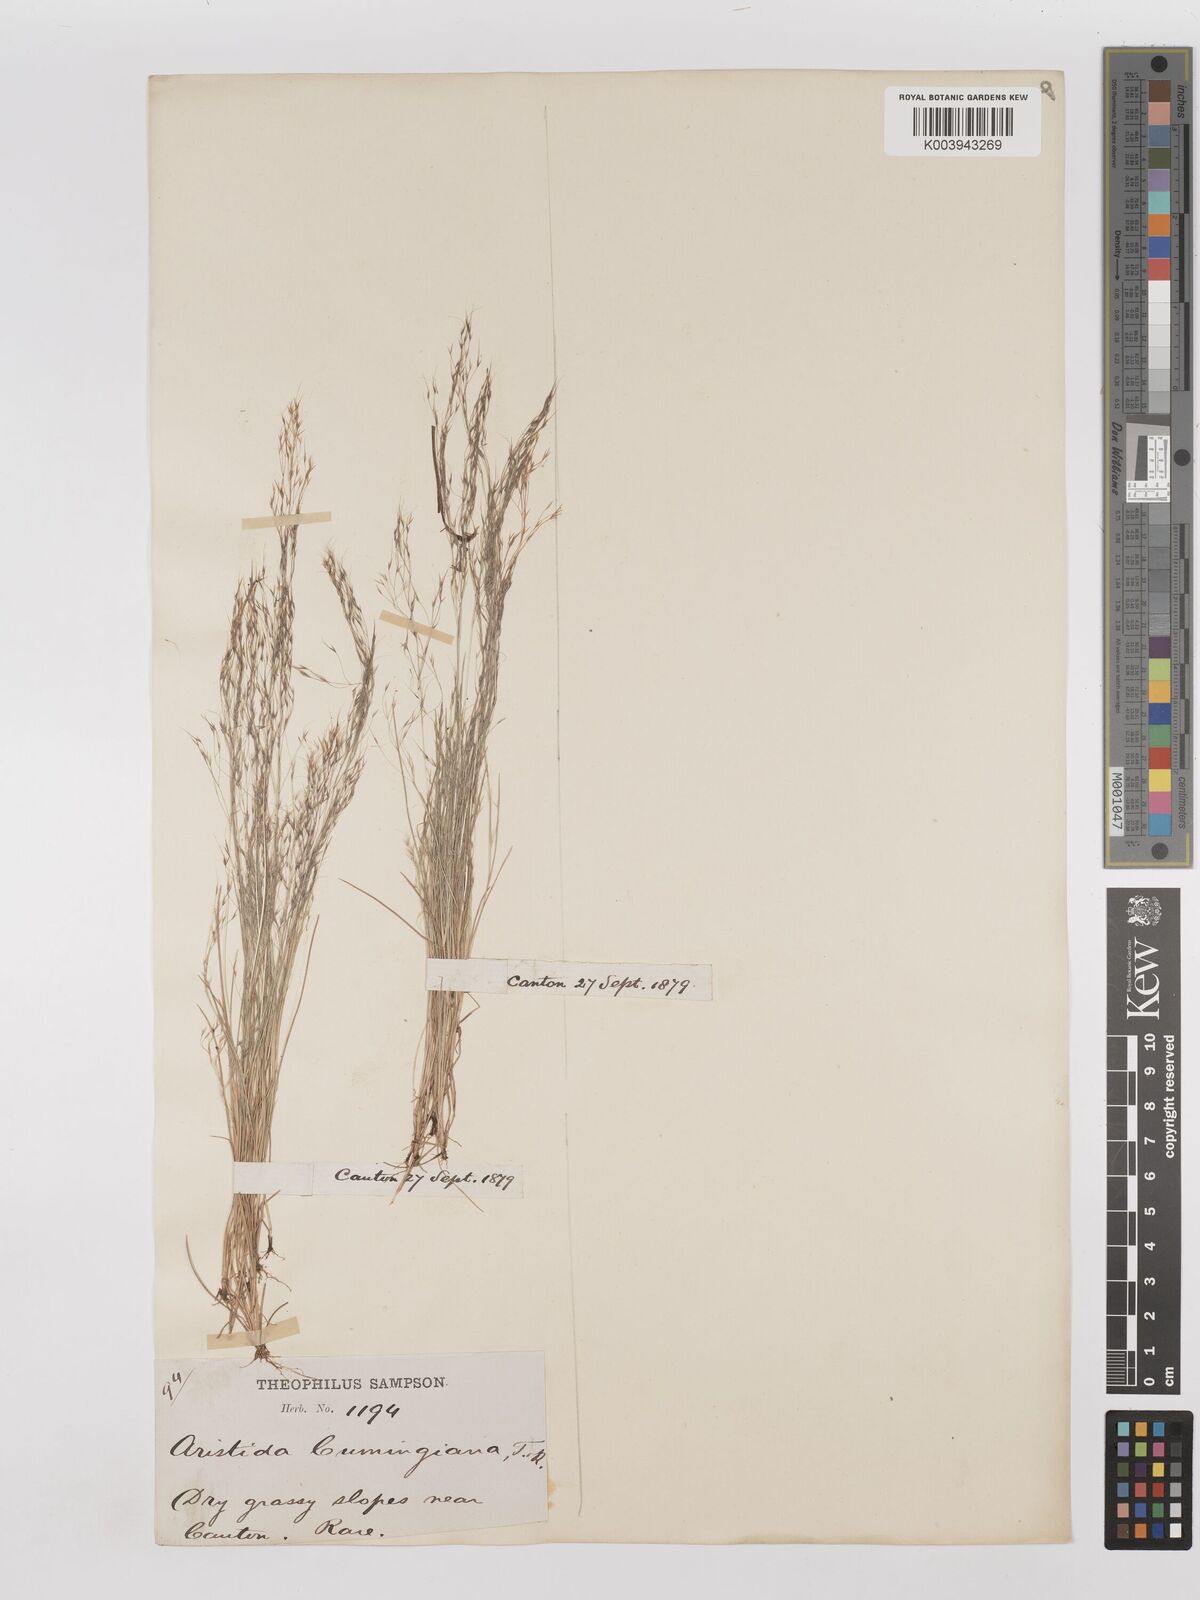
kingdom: Plantae
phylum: Tracheophyta
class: Liliopsida
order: Poales
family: Poaceae
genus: Aristida
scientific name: Aristida cumingiana
